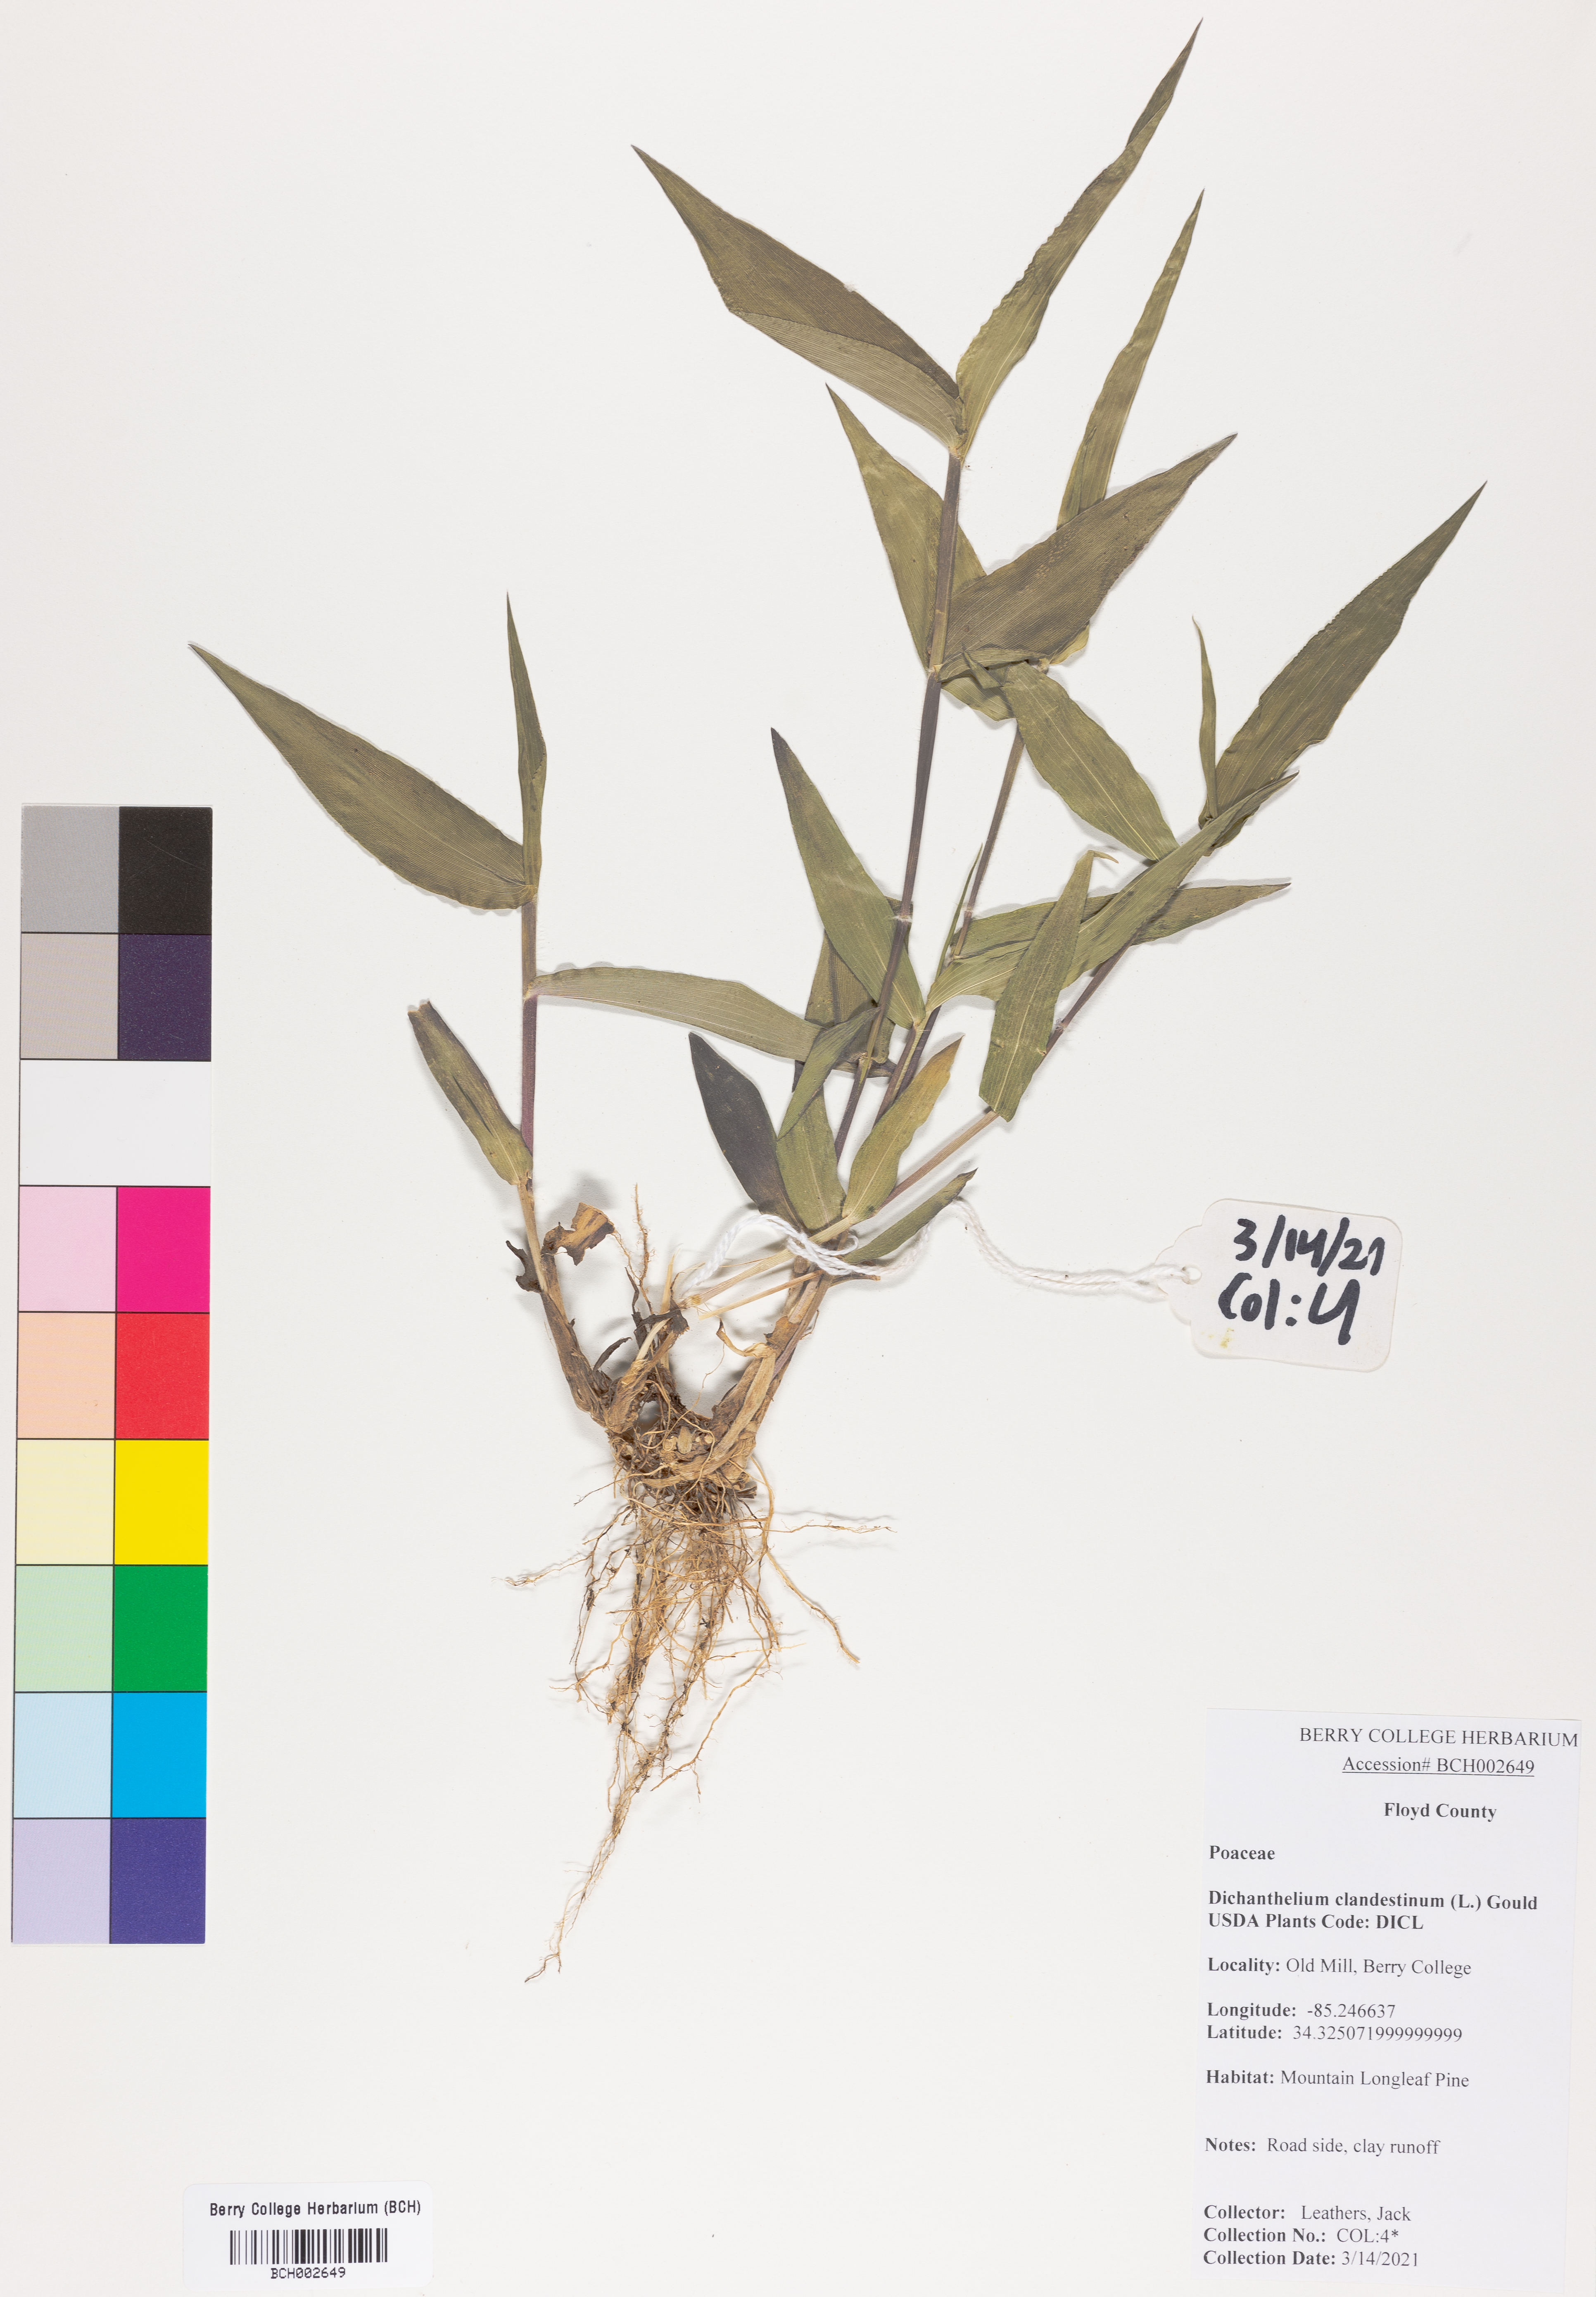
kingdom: Plantae
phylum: Tracheophyta
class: Liliopsida
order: Poales
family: Poaceae
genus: Dichanthelium
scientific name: Dichanthelium clandestinum
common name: Deer-tongue grass
